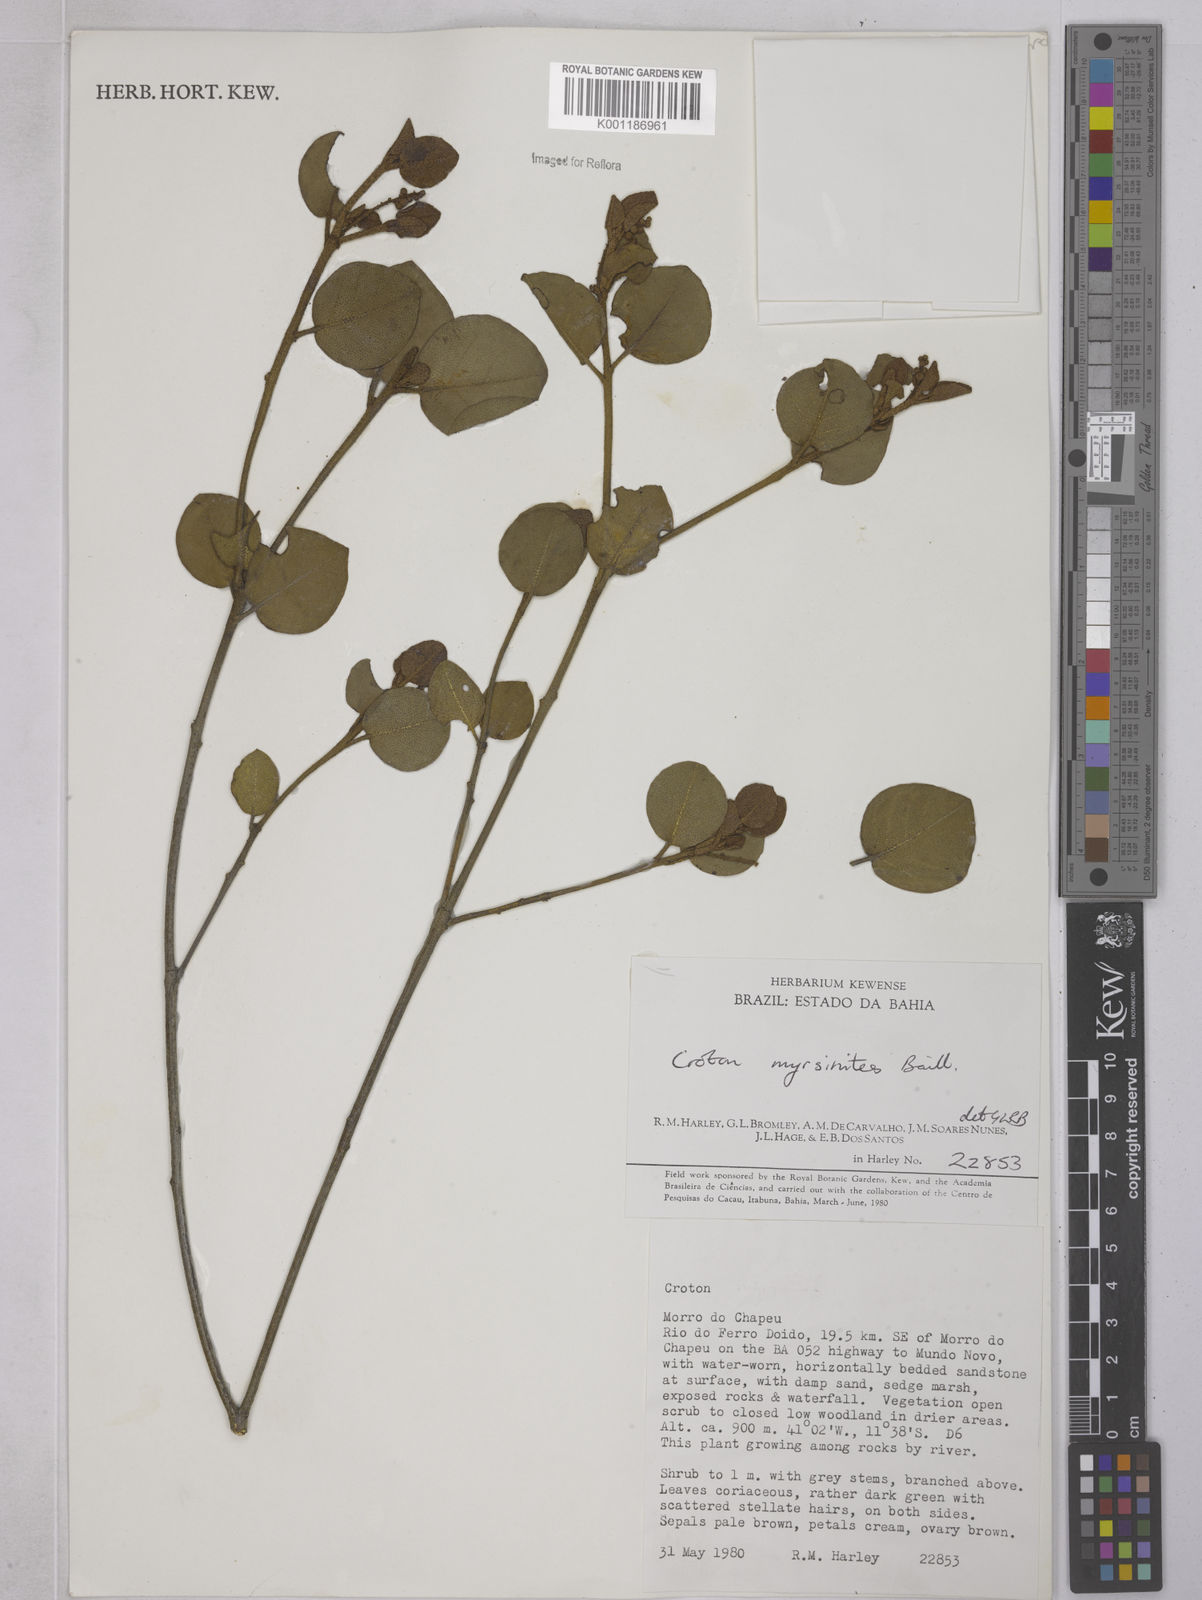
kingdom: Plantae
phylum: Tracheophyta
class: Magnoliopsida
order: Malpighiales
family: Euphorbiaceae
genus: Croton
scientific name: Croton myrsinites
